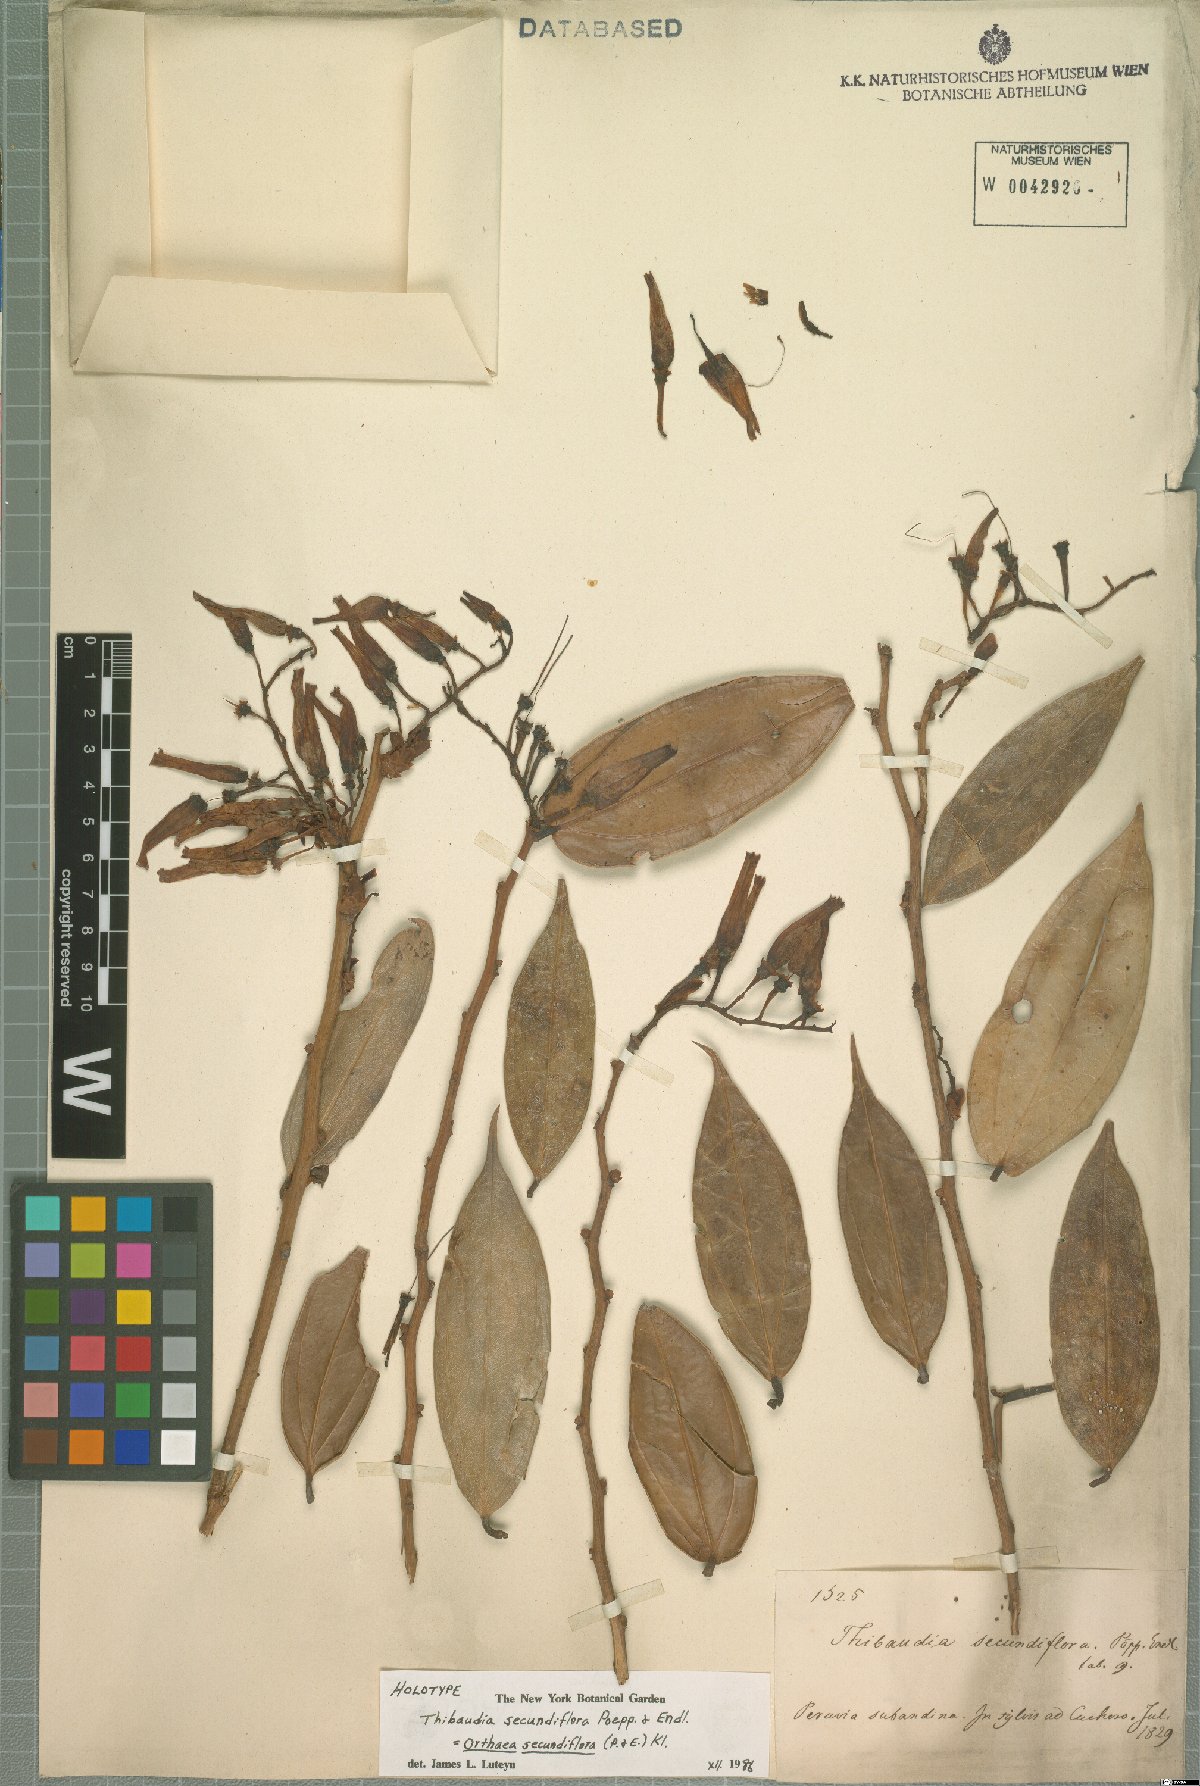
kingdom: Plantae
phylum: Tracheophyta
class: Magnoliopsida
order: Ericales
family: Ericaceae
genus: Orthaea
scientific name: Orthaea secundiflora
